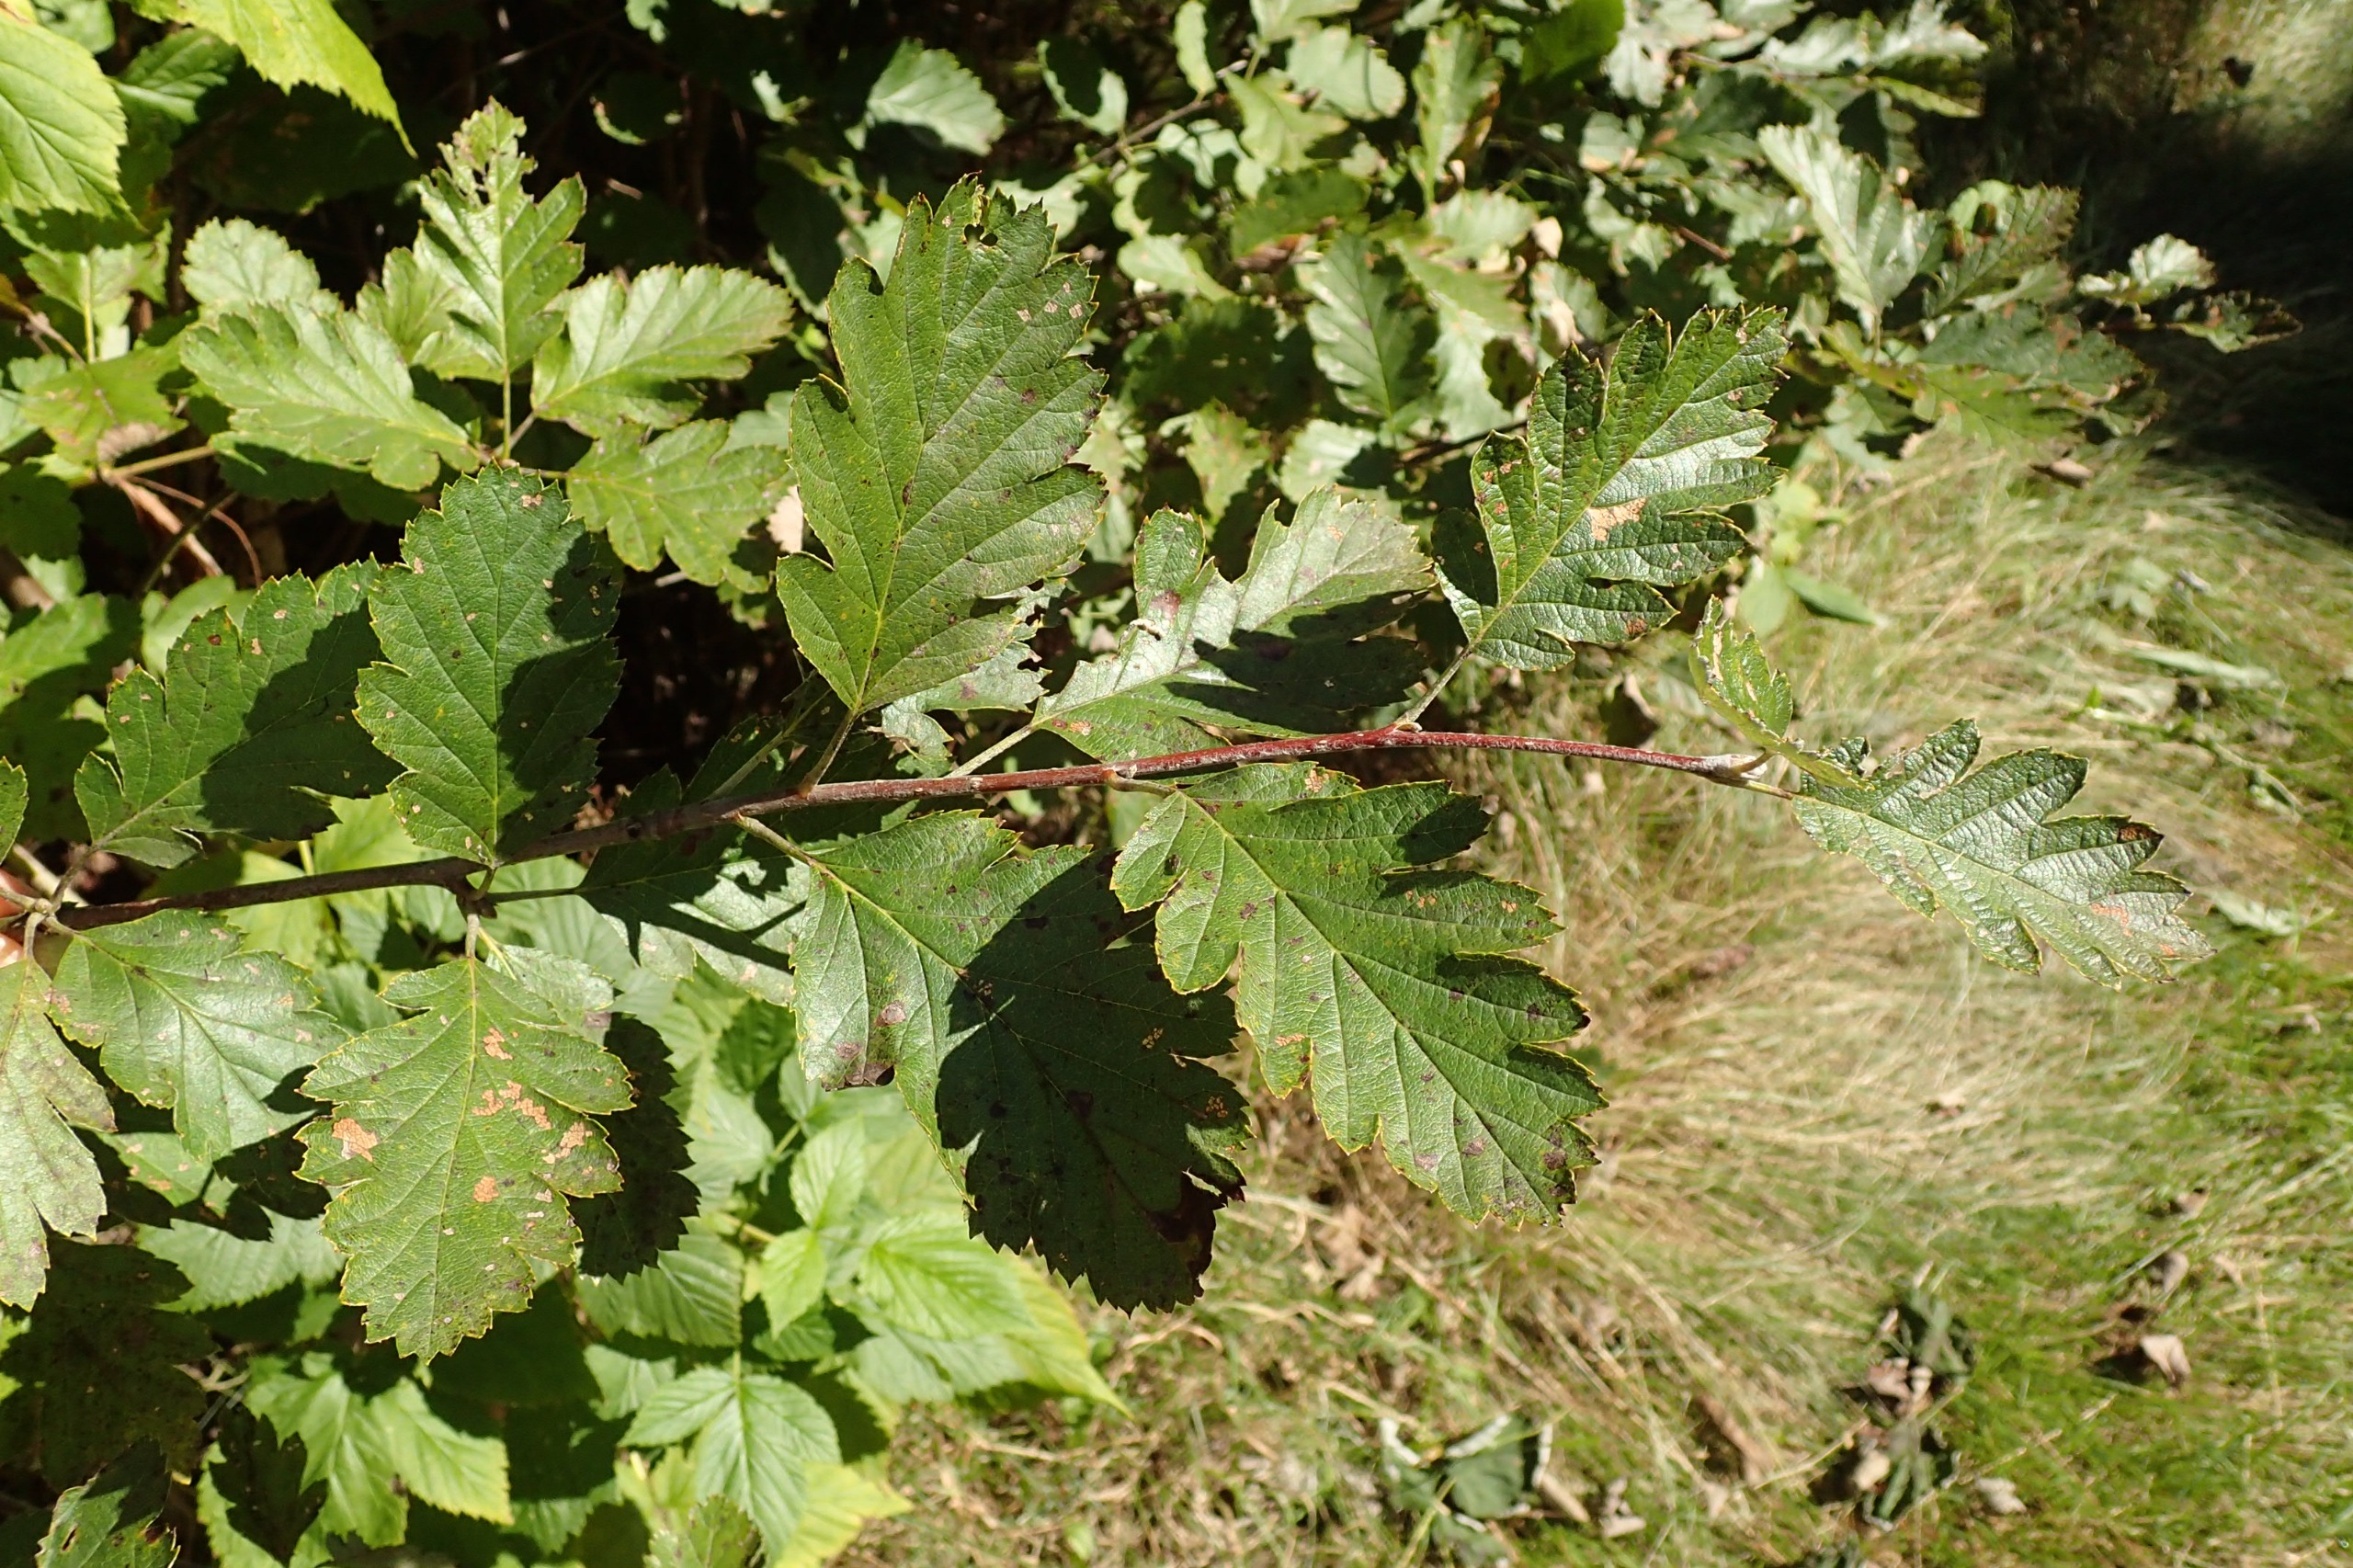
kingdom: Plantae
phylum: Tracheophyta
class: Magnoliopsida
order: Rosales
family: Rosaceae
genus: Scandosorbus
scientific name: Scandosorbus intermedia
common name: Selje-røn
